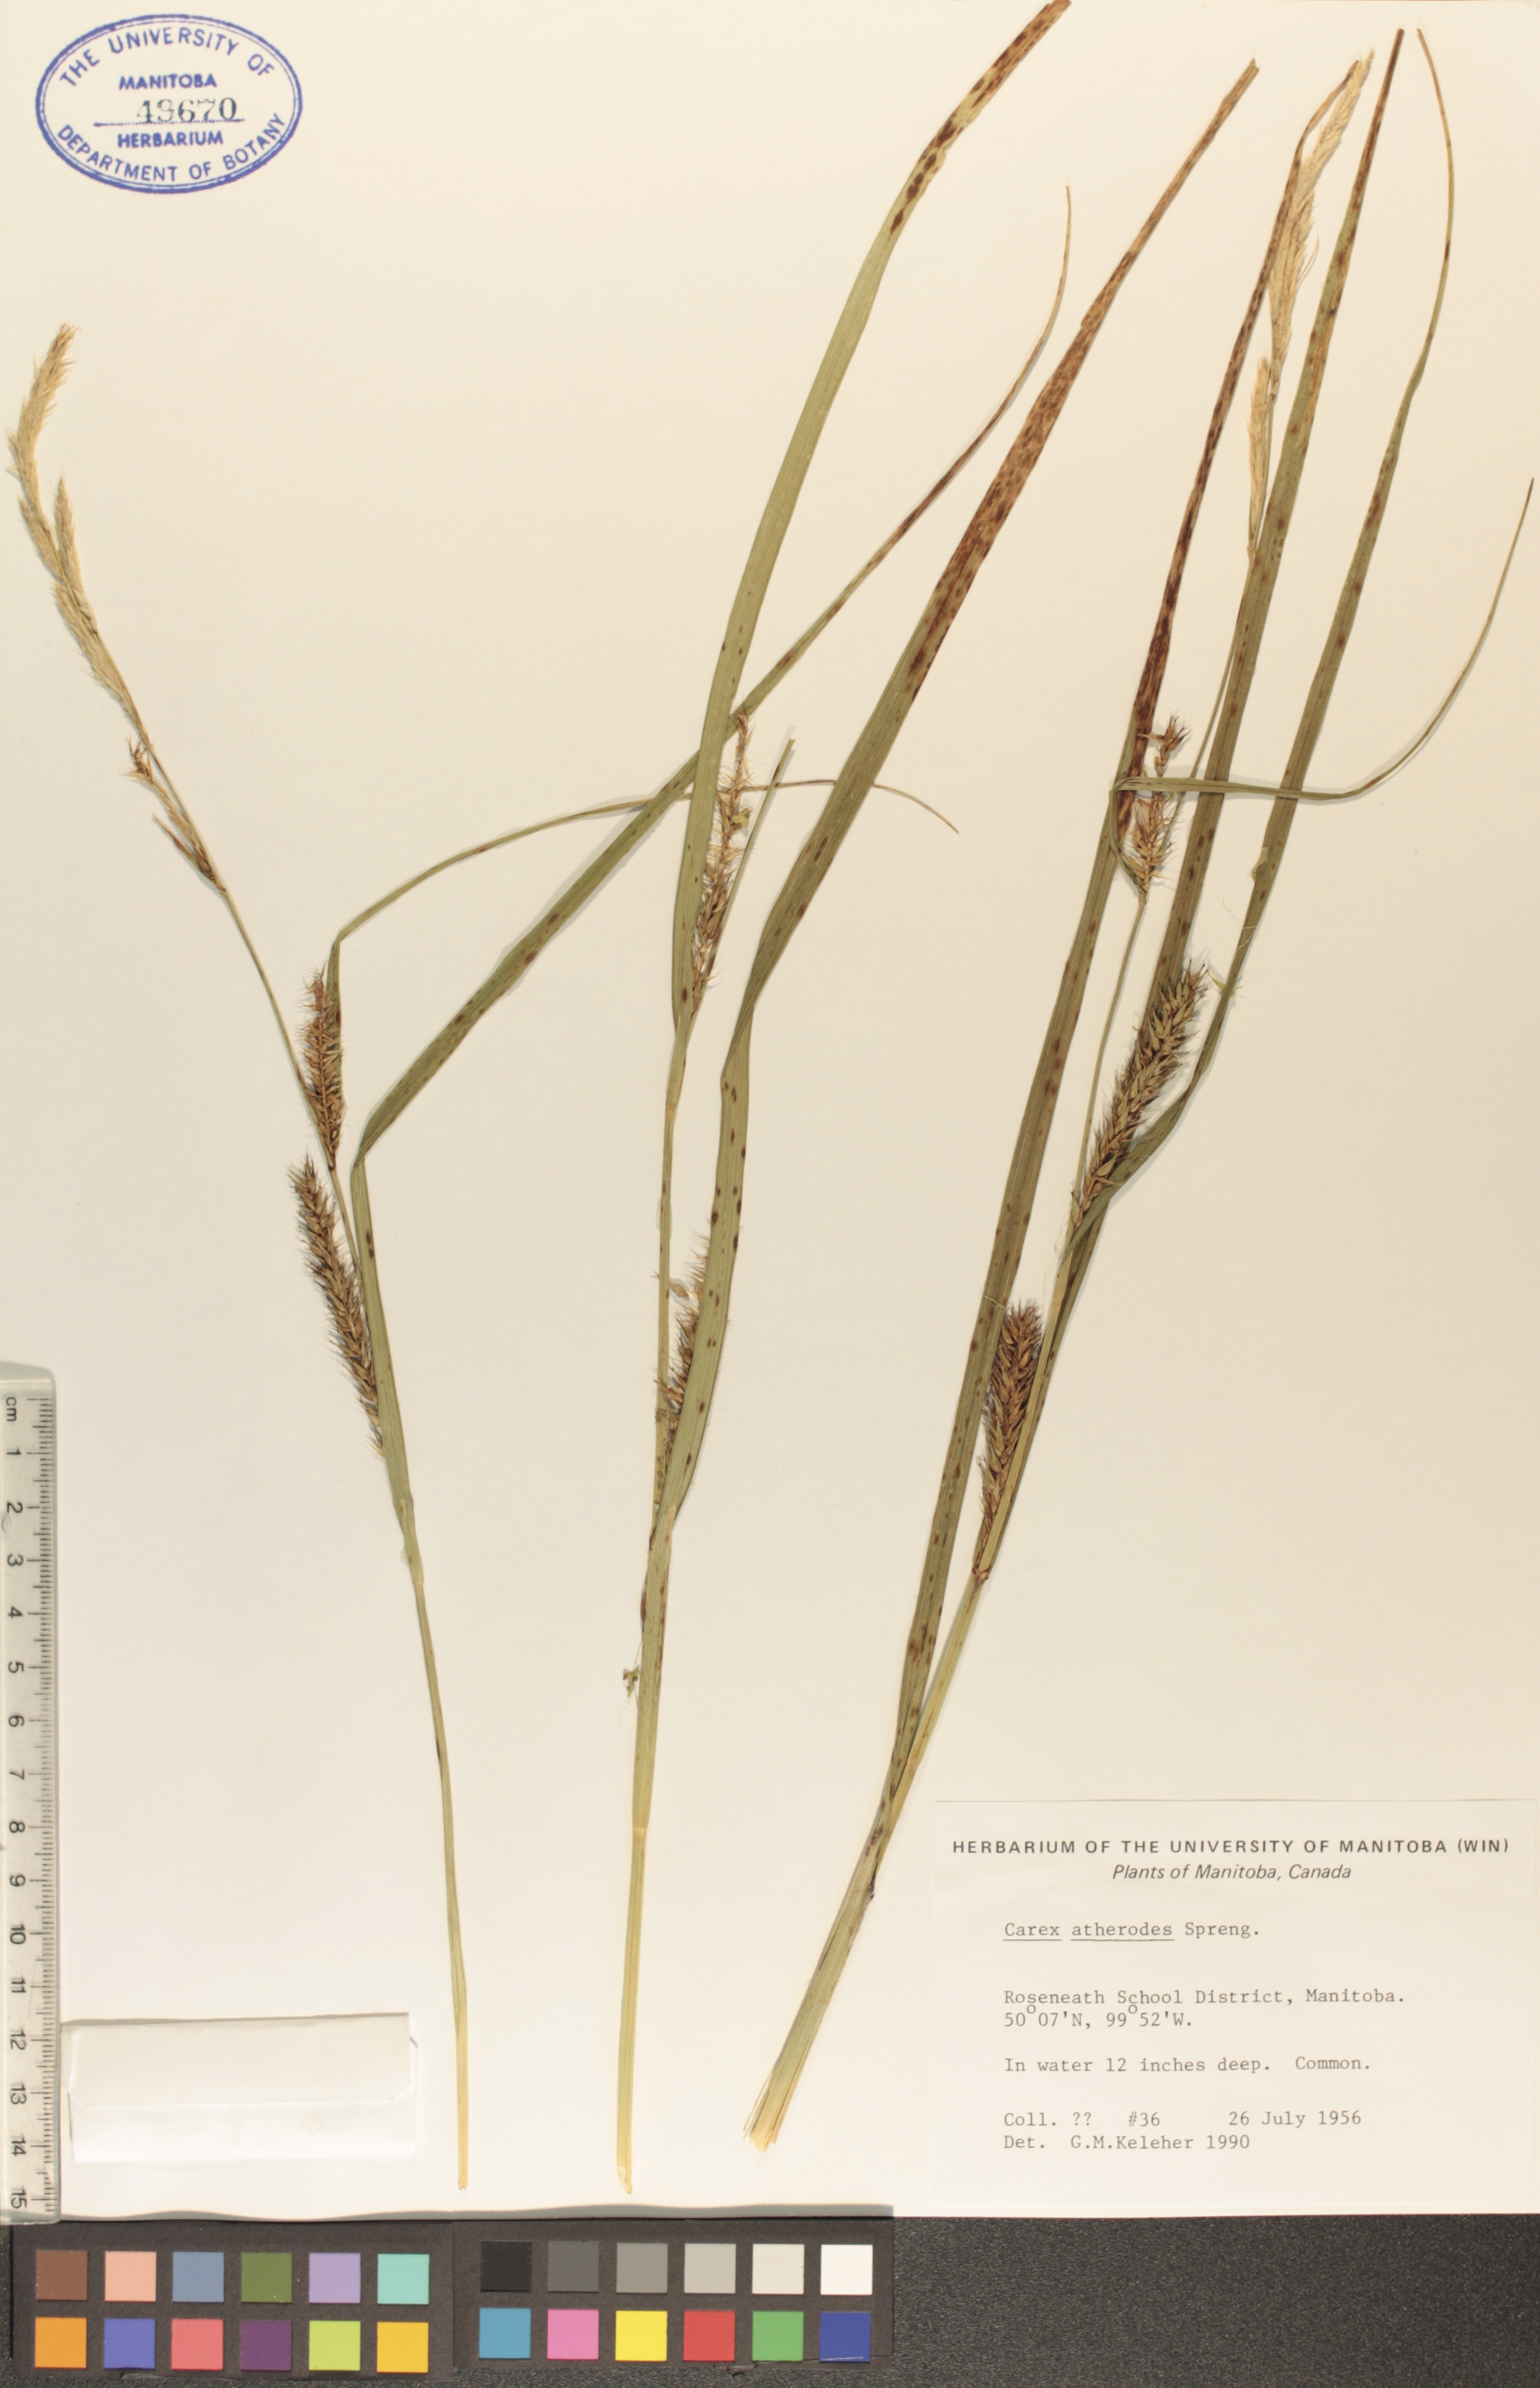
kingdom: Plantae
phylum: Tracheophyta
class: Liliopsida
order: Poales
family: Cyperaceae
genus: Carex
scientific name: Carex atherodes
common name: Wheat sedge
